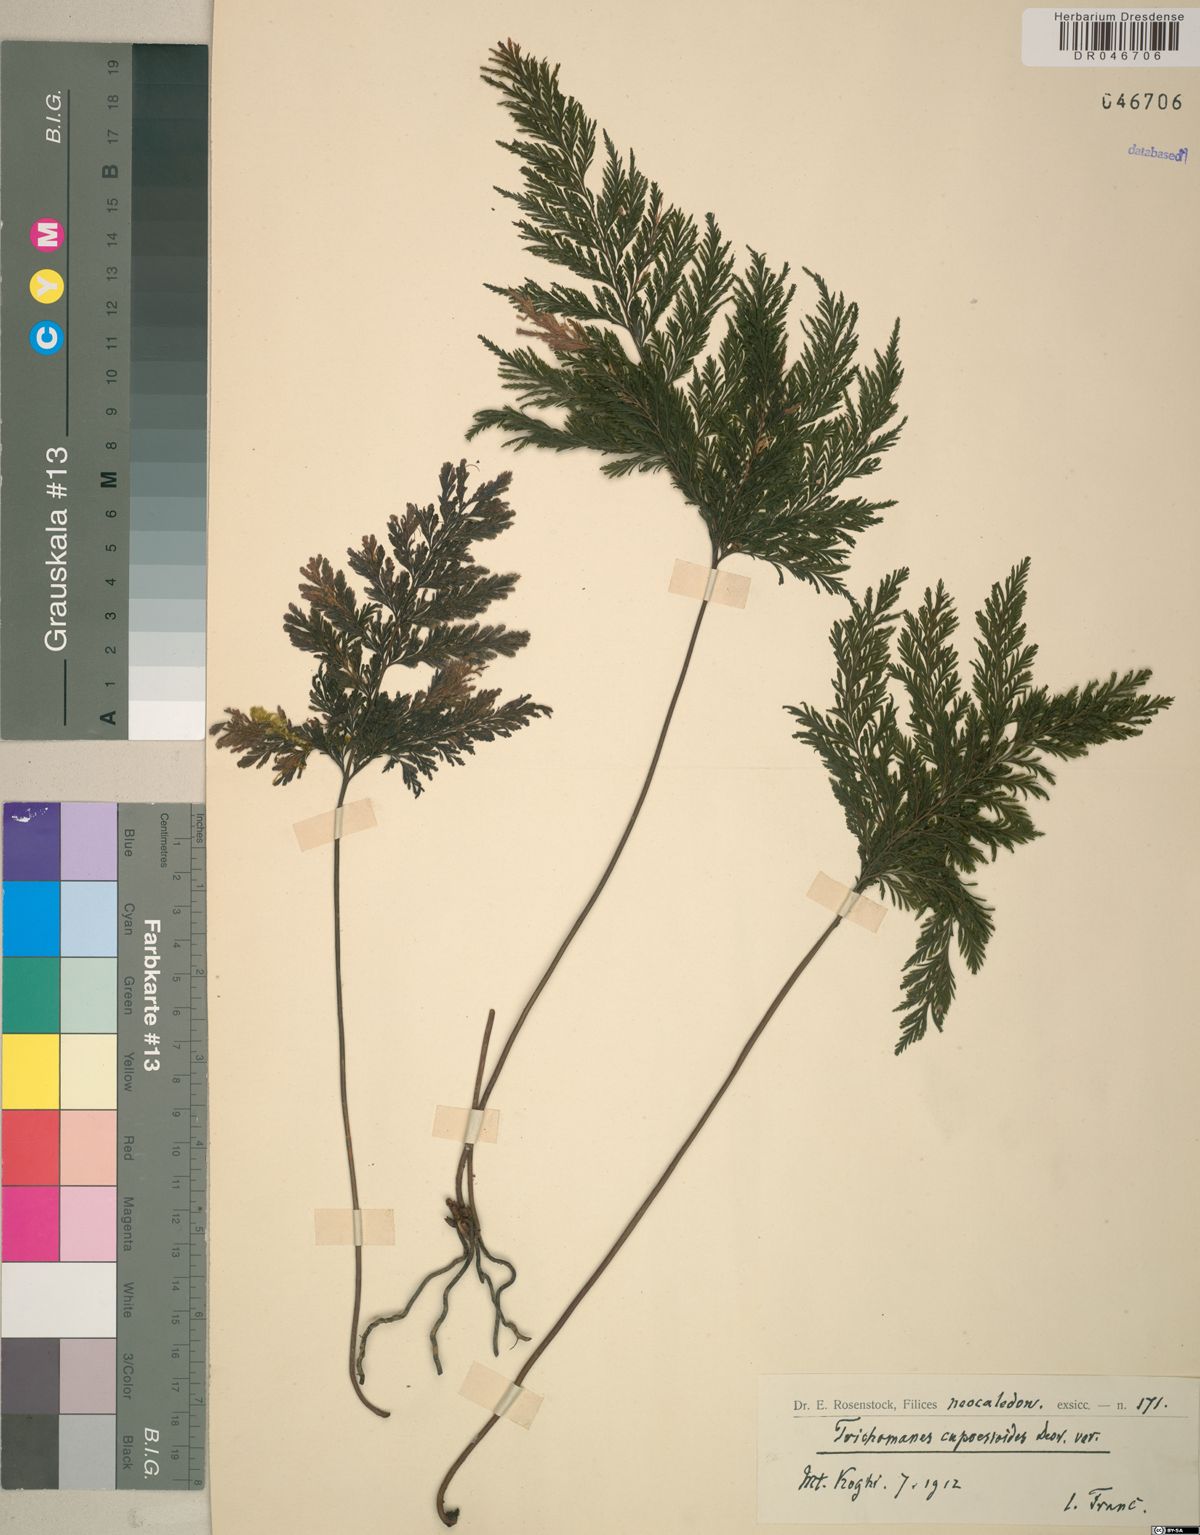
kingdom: Plantae
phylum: Tracheophyta
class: Polypodiopsida
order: Hymenophyllales
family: Hymenophyllaceae
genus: Trichomanes
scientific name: Trichomanes cupressoides
